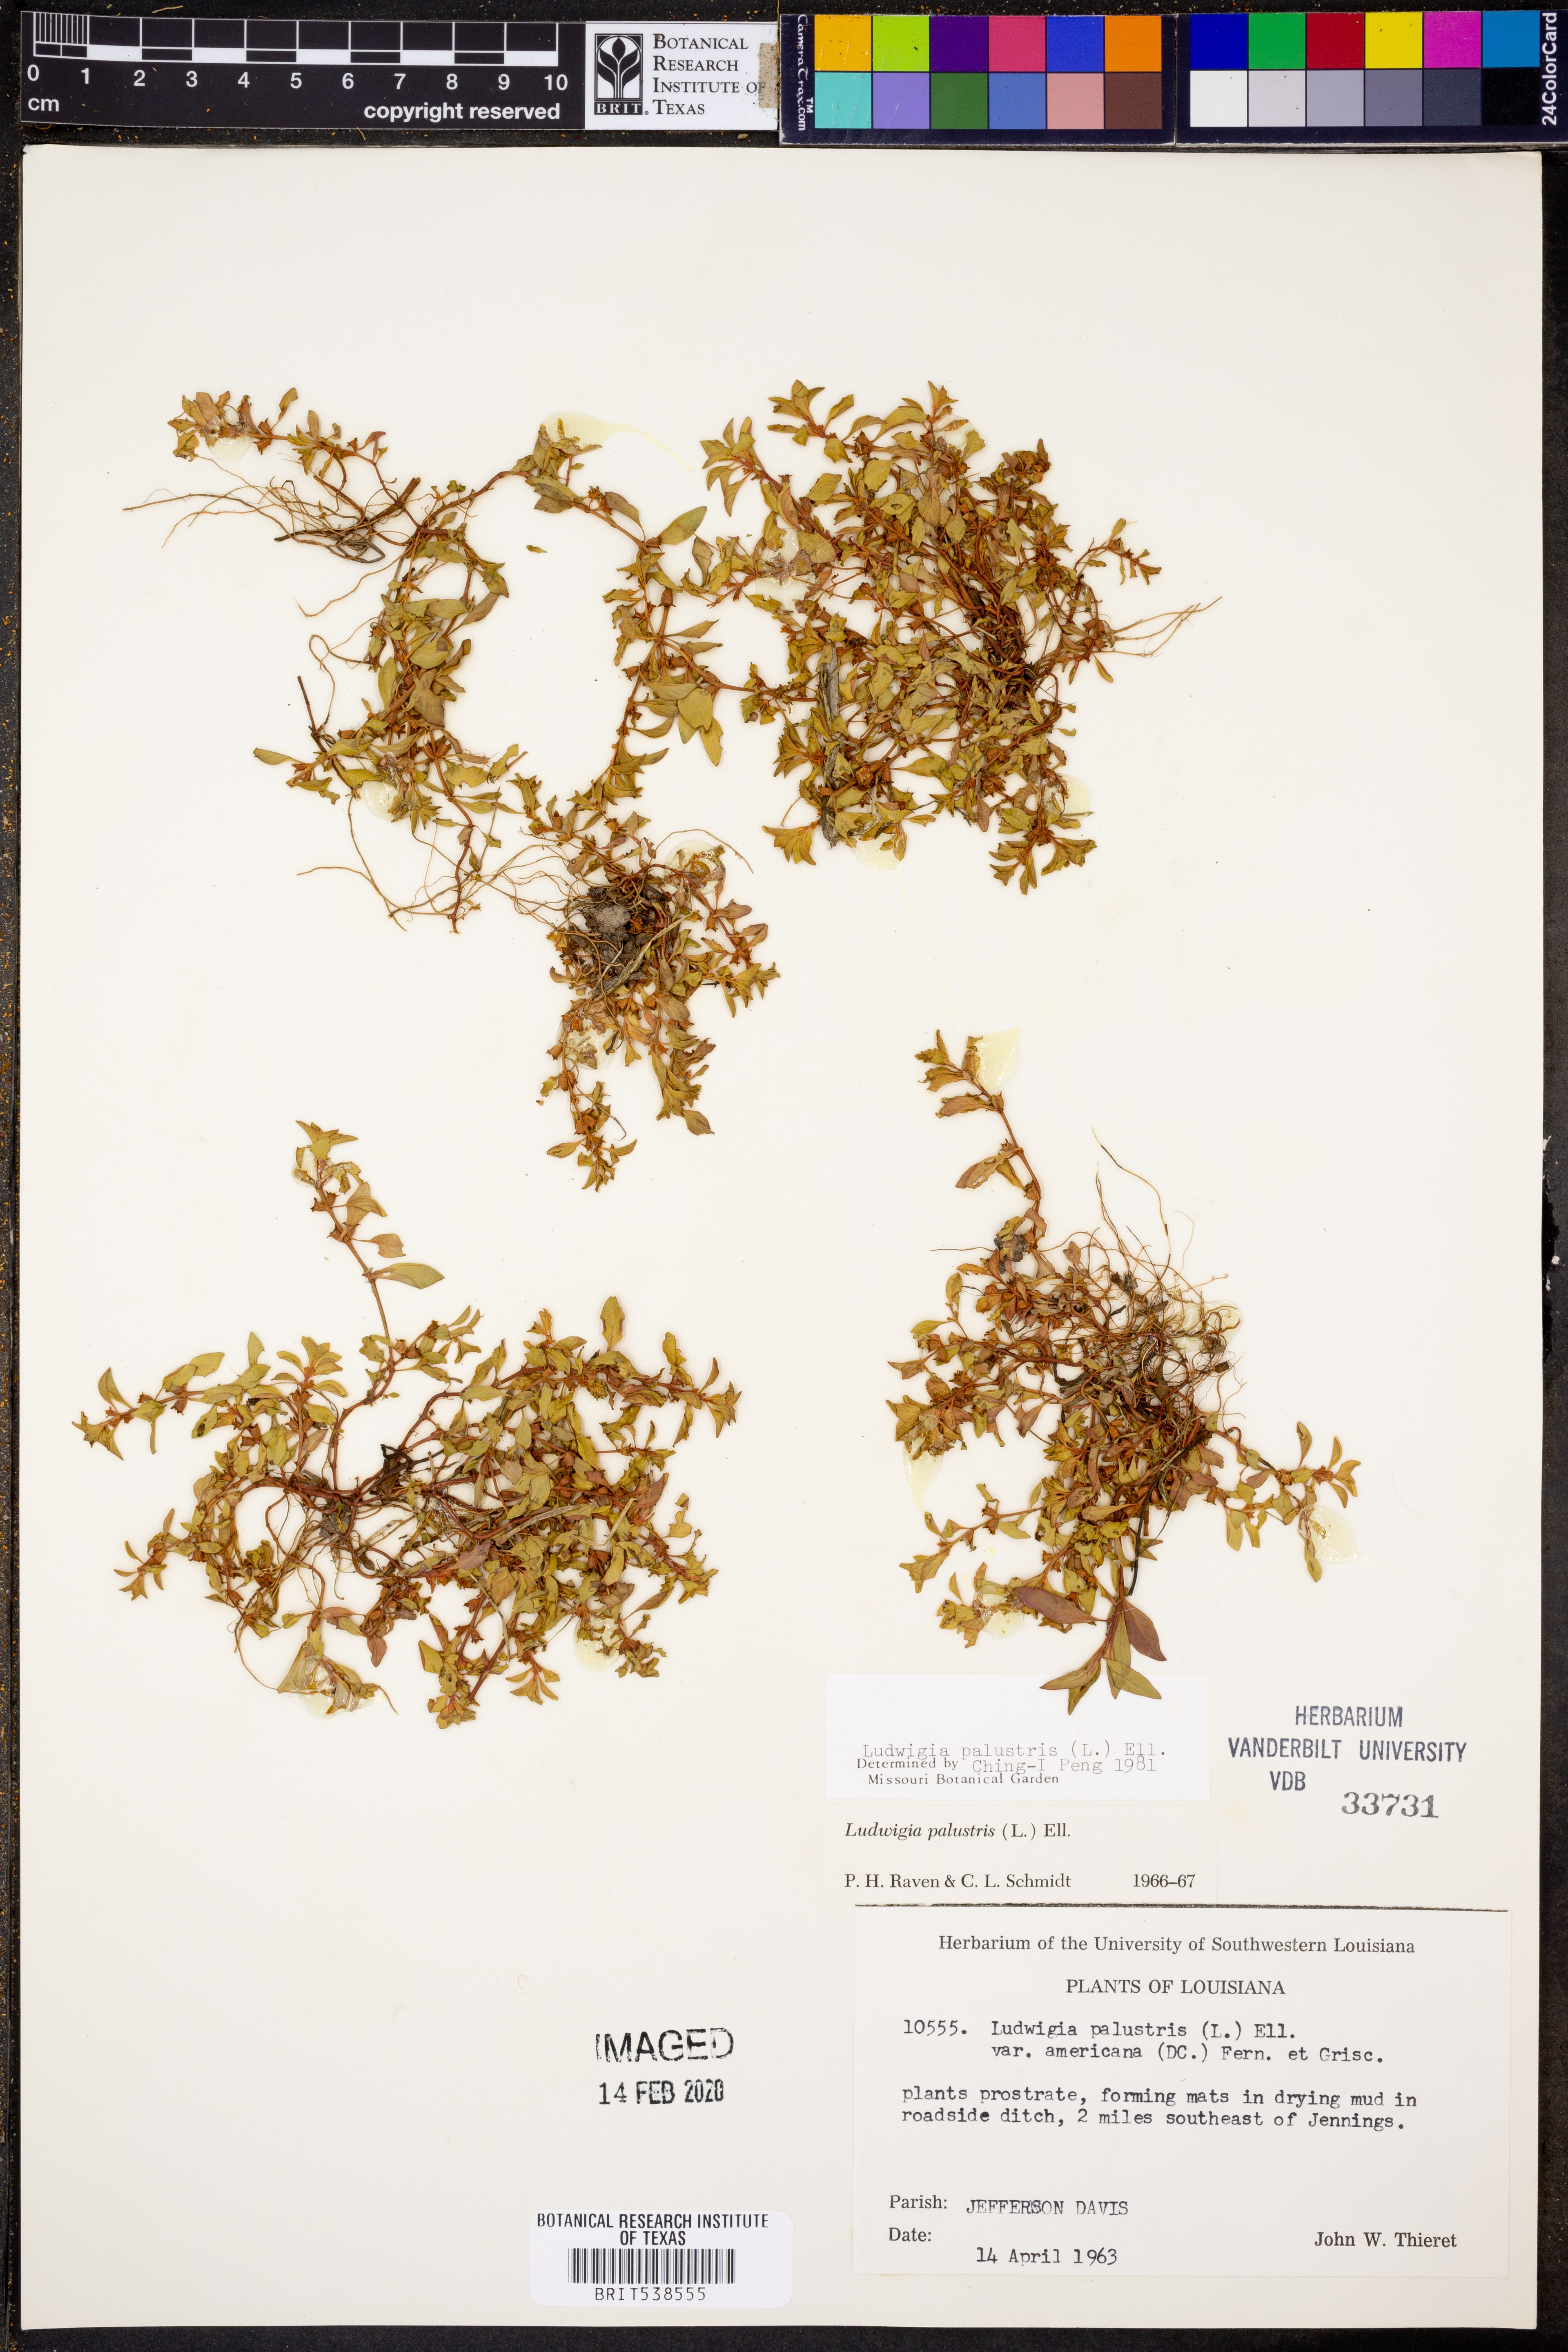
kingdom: Plantae
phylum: Tracheophyta
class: Magnoliopsida
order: Myrtales
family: Onagraceae
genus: Ludwigia
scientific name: Ludwigia palustris
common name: Hampshire-purslane
